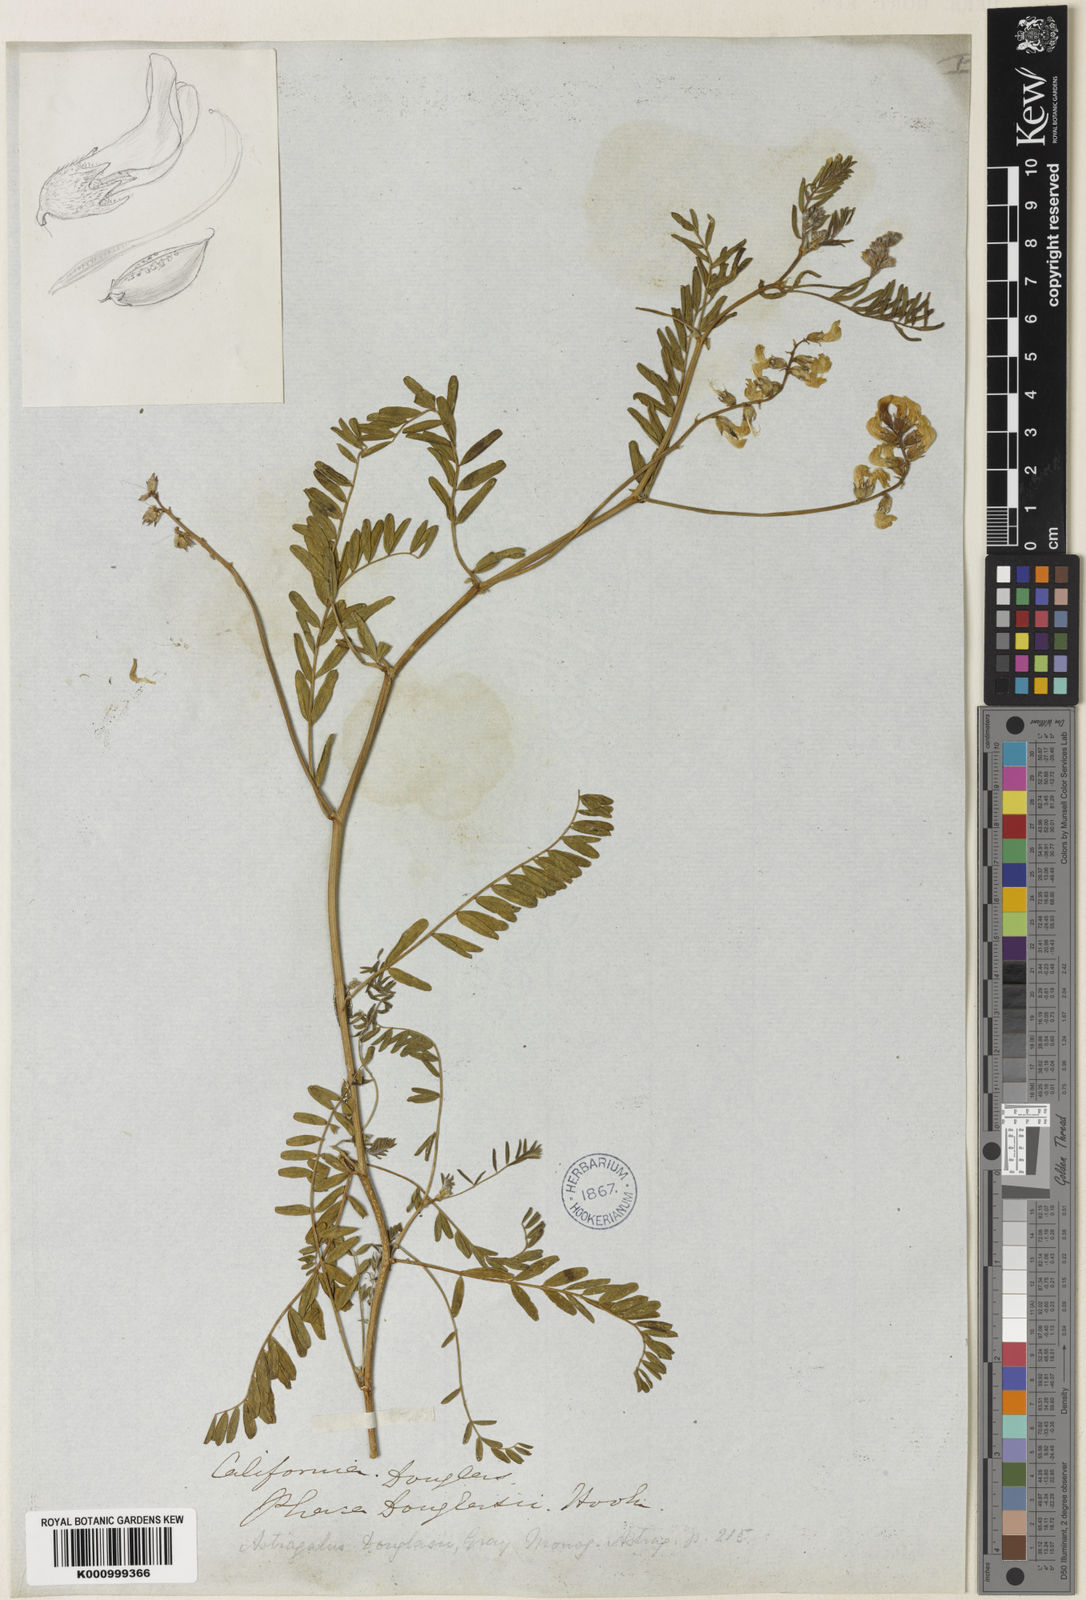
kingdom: Plantae
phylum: Tracheophyta
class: Magnoliopsida
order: Fabales
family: Fabaceae
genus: Astragalus
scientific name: Astragalus douglasii
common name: Jacumba milkvetch
